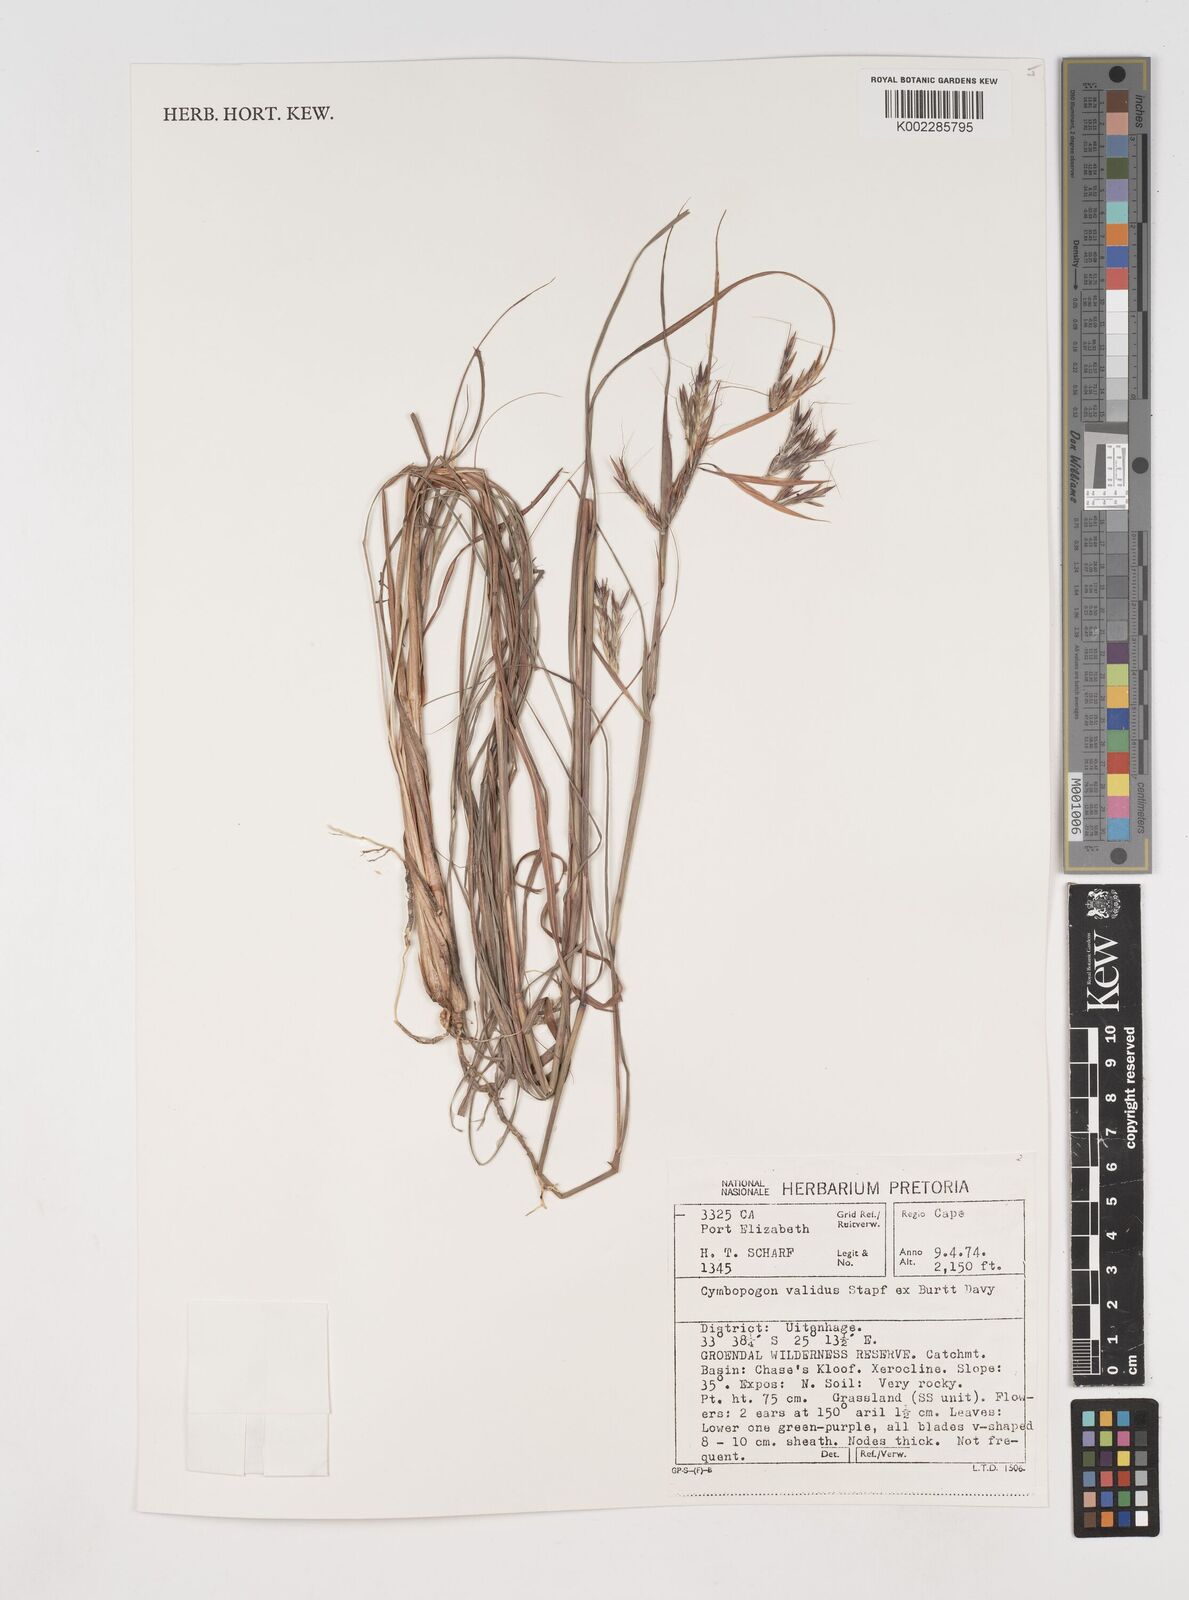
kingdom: Plantae
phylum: Tracheophyta
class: Liliopsida
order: Poales
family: Poaceae
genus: Cymbopogon
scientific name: Cymbopogon nardus
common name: Giant turpentine grass
